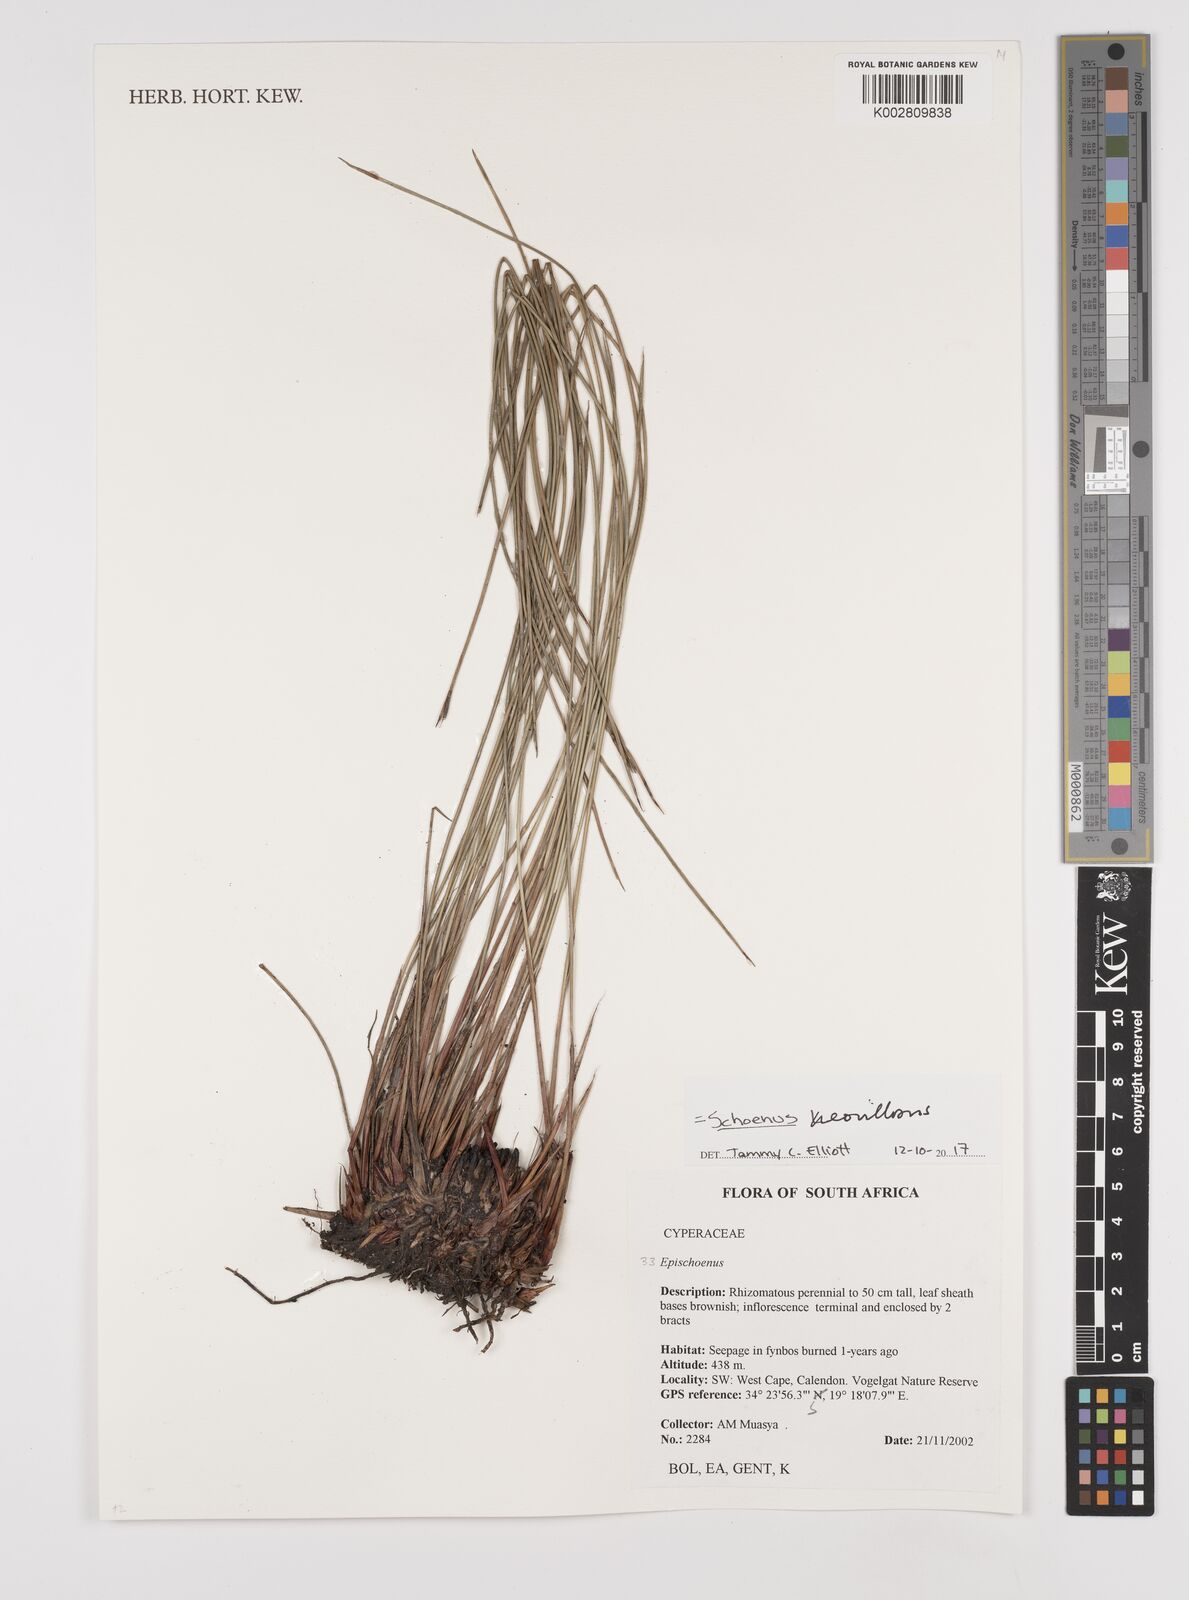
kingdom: Plantae
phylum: Tracheophyta
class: Liliopsida
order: Poales
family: Cyperaceae
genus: Schoenus
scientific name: Schoenus quadrangularis
